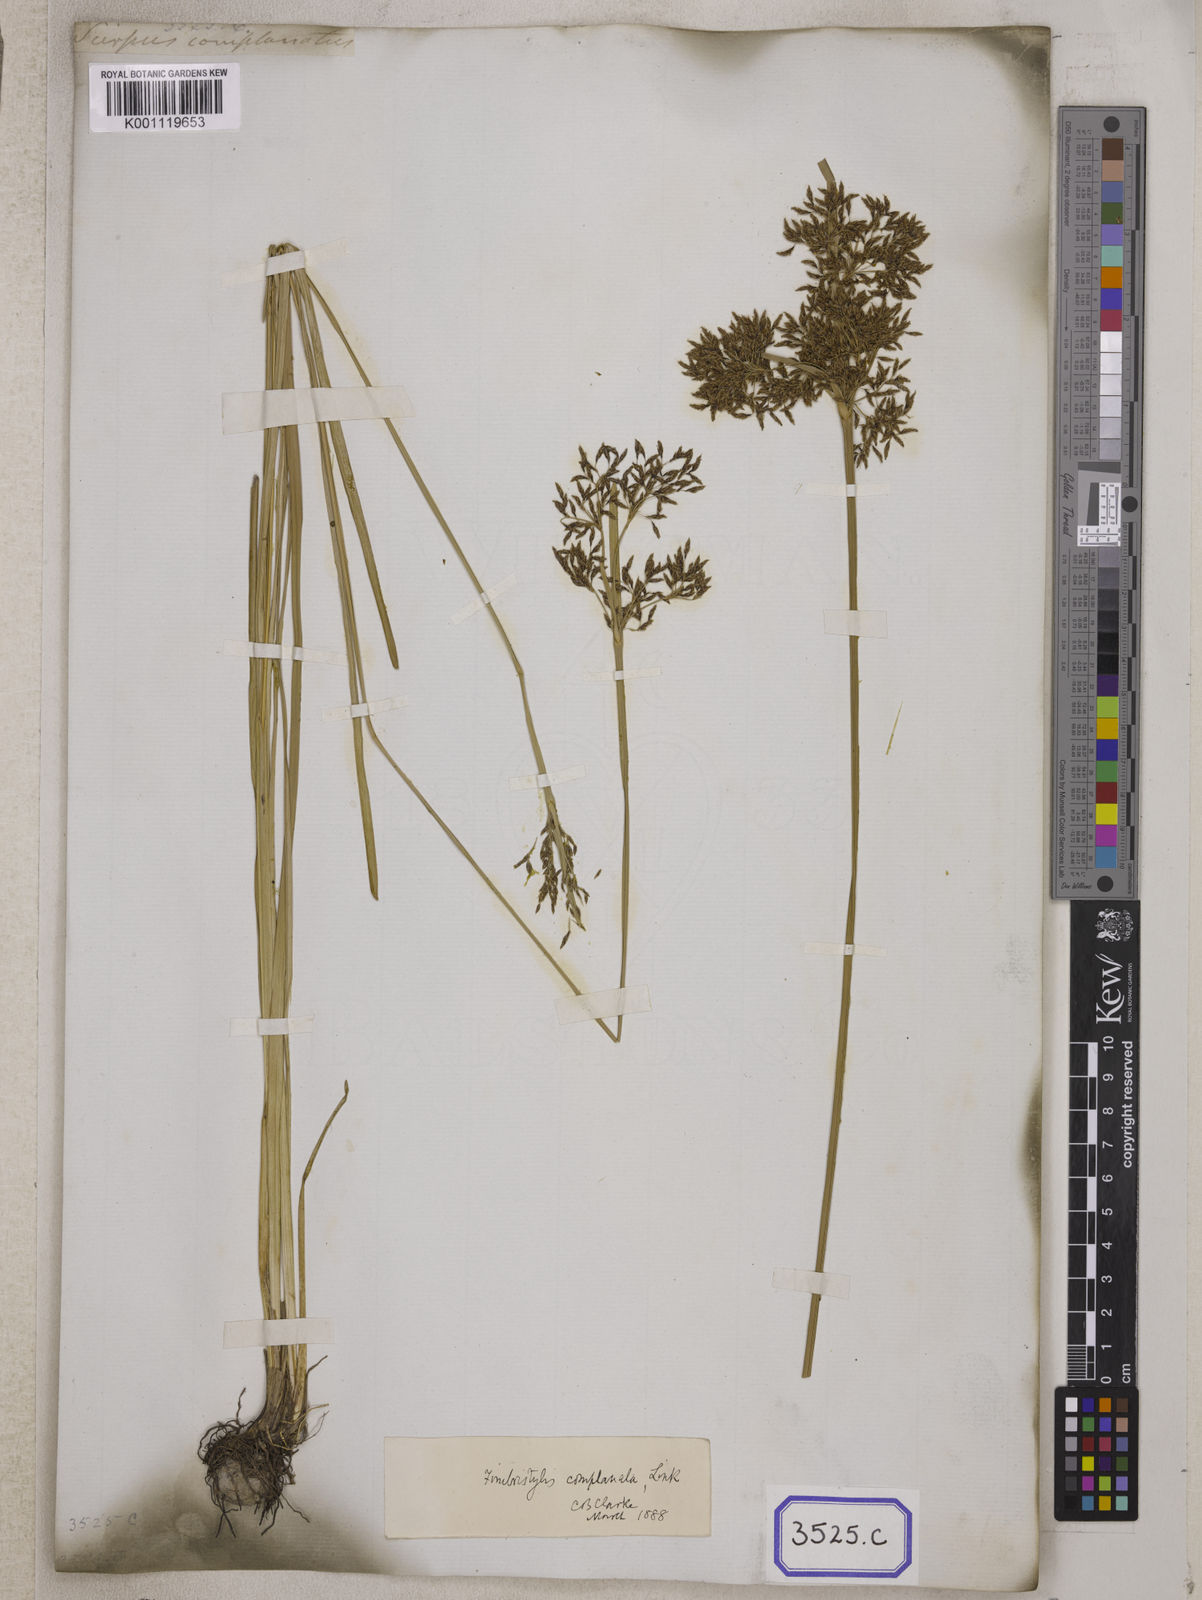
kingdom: Plantae
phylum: Tracheophyta
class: Liliopsida
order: Poales
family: Cyperaceae
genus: Fimbristylis
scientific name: Fimbristylis
